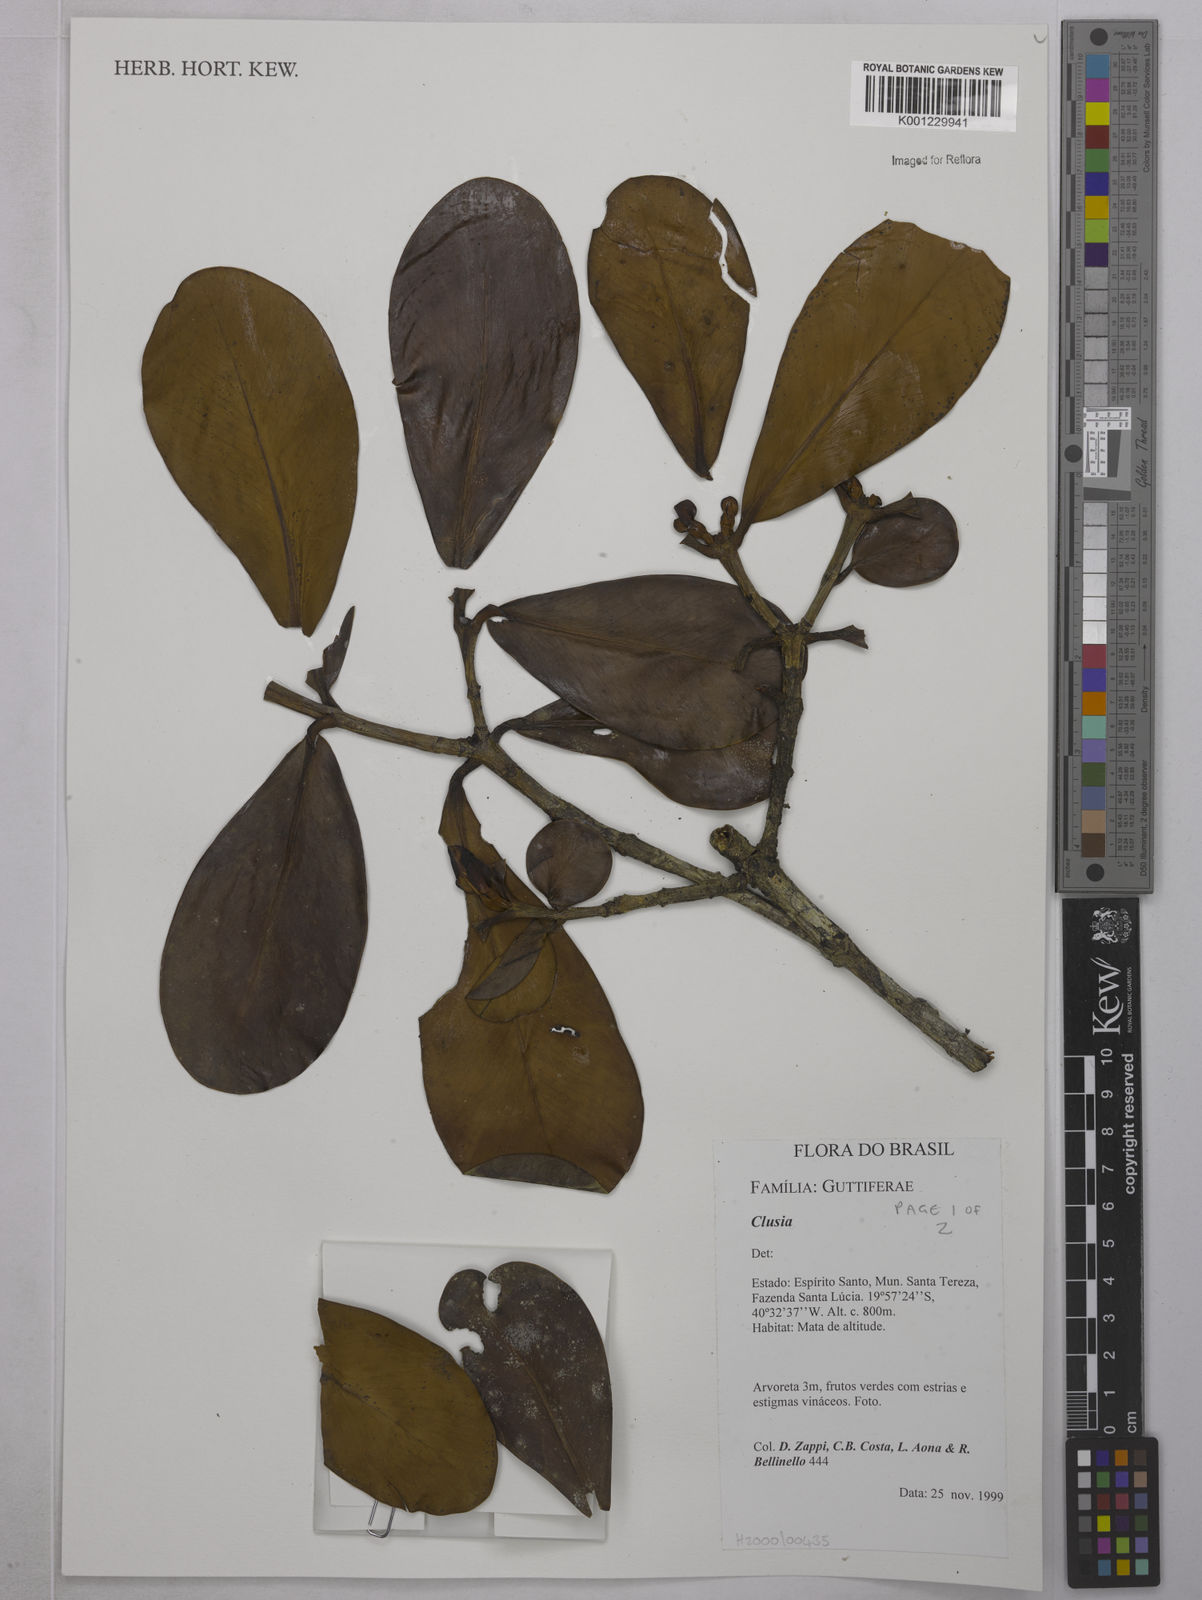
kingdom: Plantae
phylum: Tracheophyta
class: Magnoliopsida
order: Malpighiales
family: Clusiaceae
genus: Clusia
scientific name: Clusia
